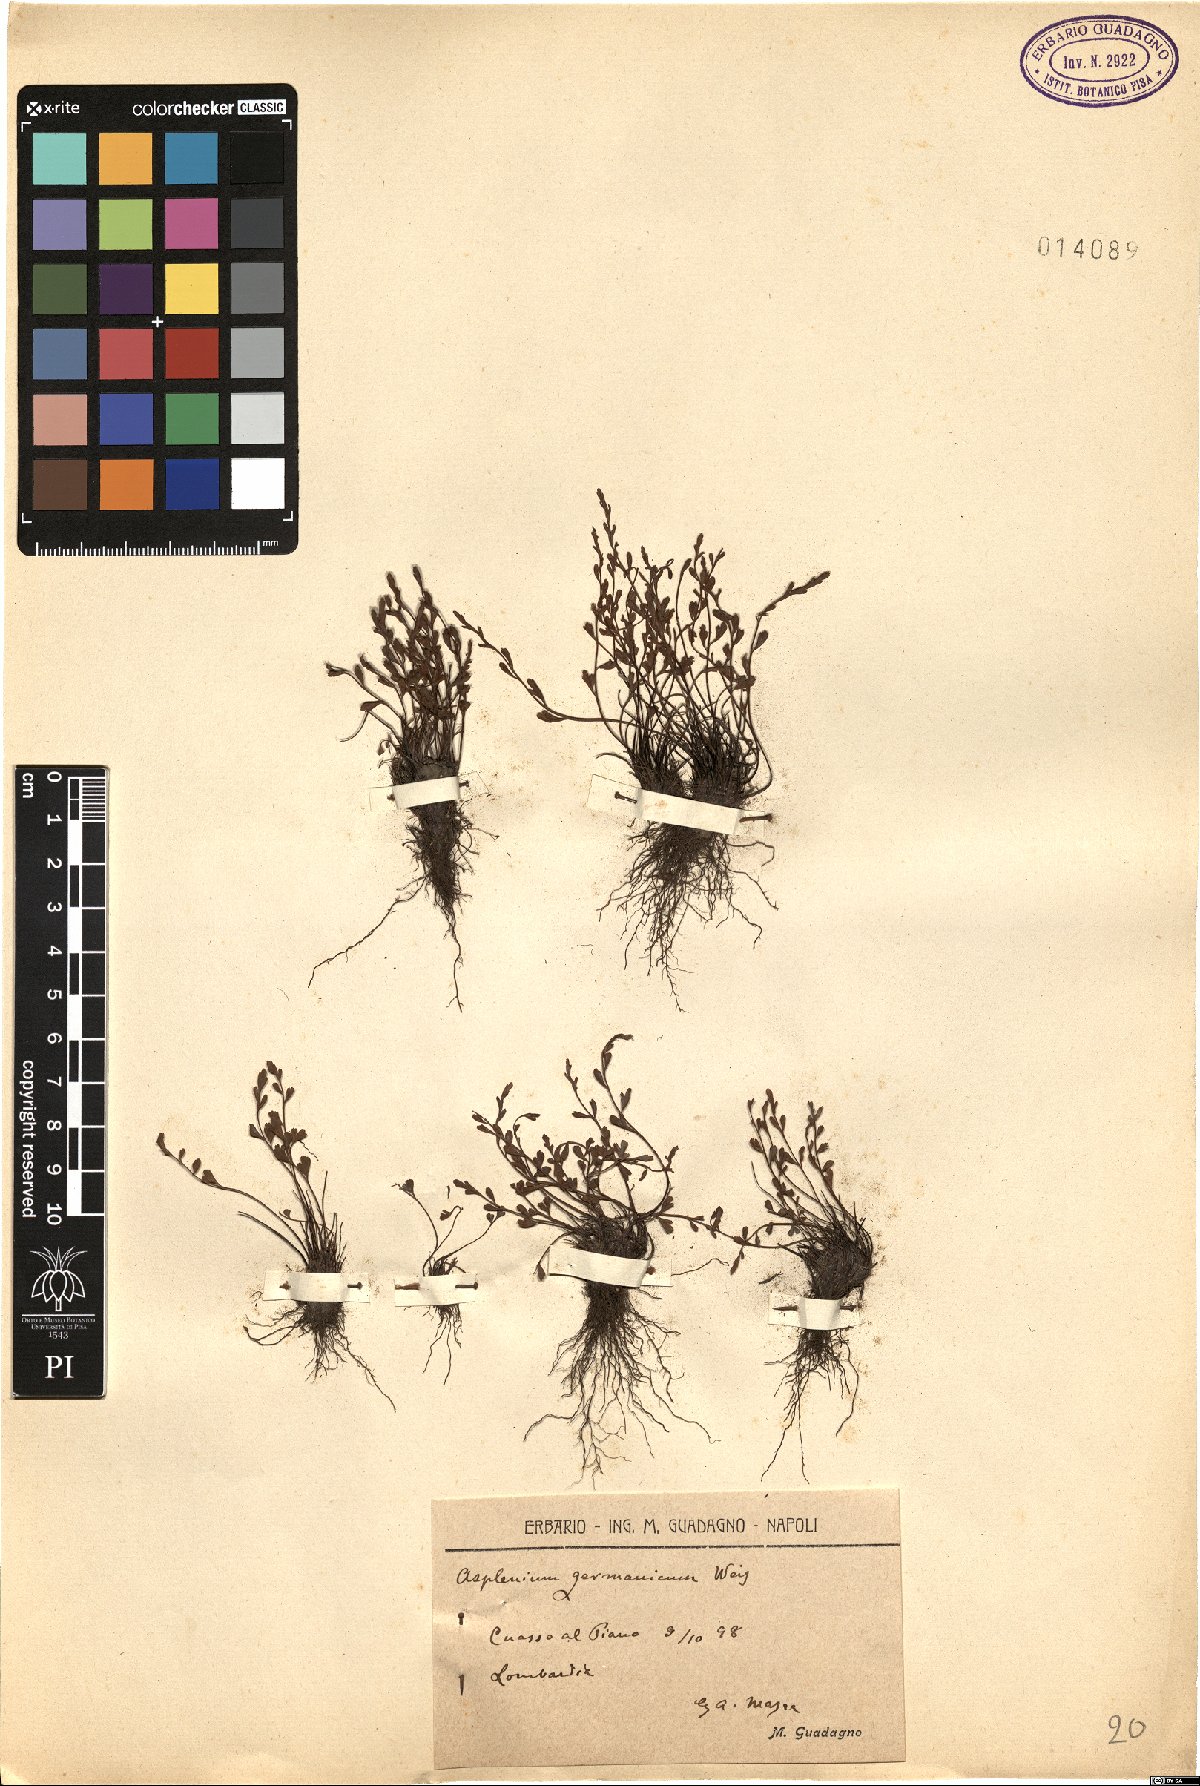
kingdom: Plantae
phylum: Tracheophyta
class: Polypodiopsida
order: Polypodiales
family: Aspleniaceae
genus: Asplenium
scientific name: Asplenium alternifolium
